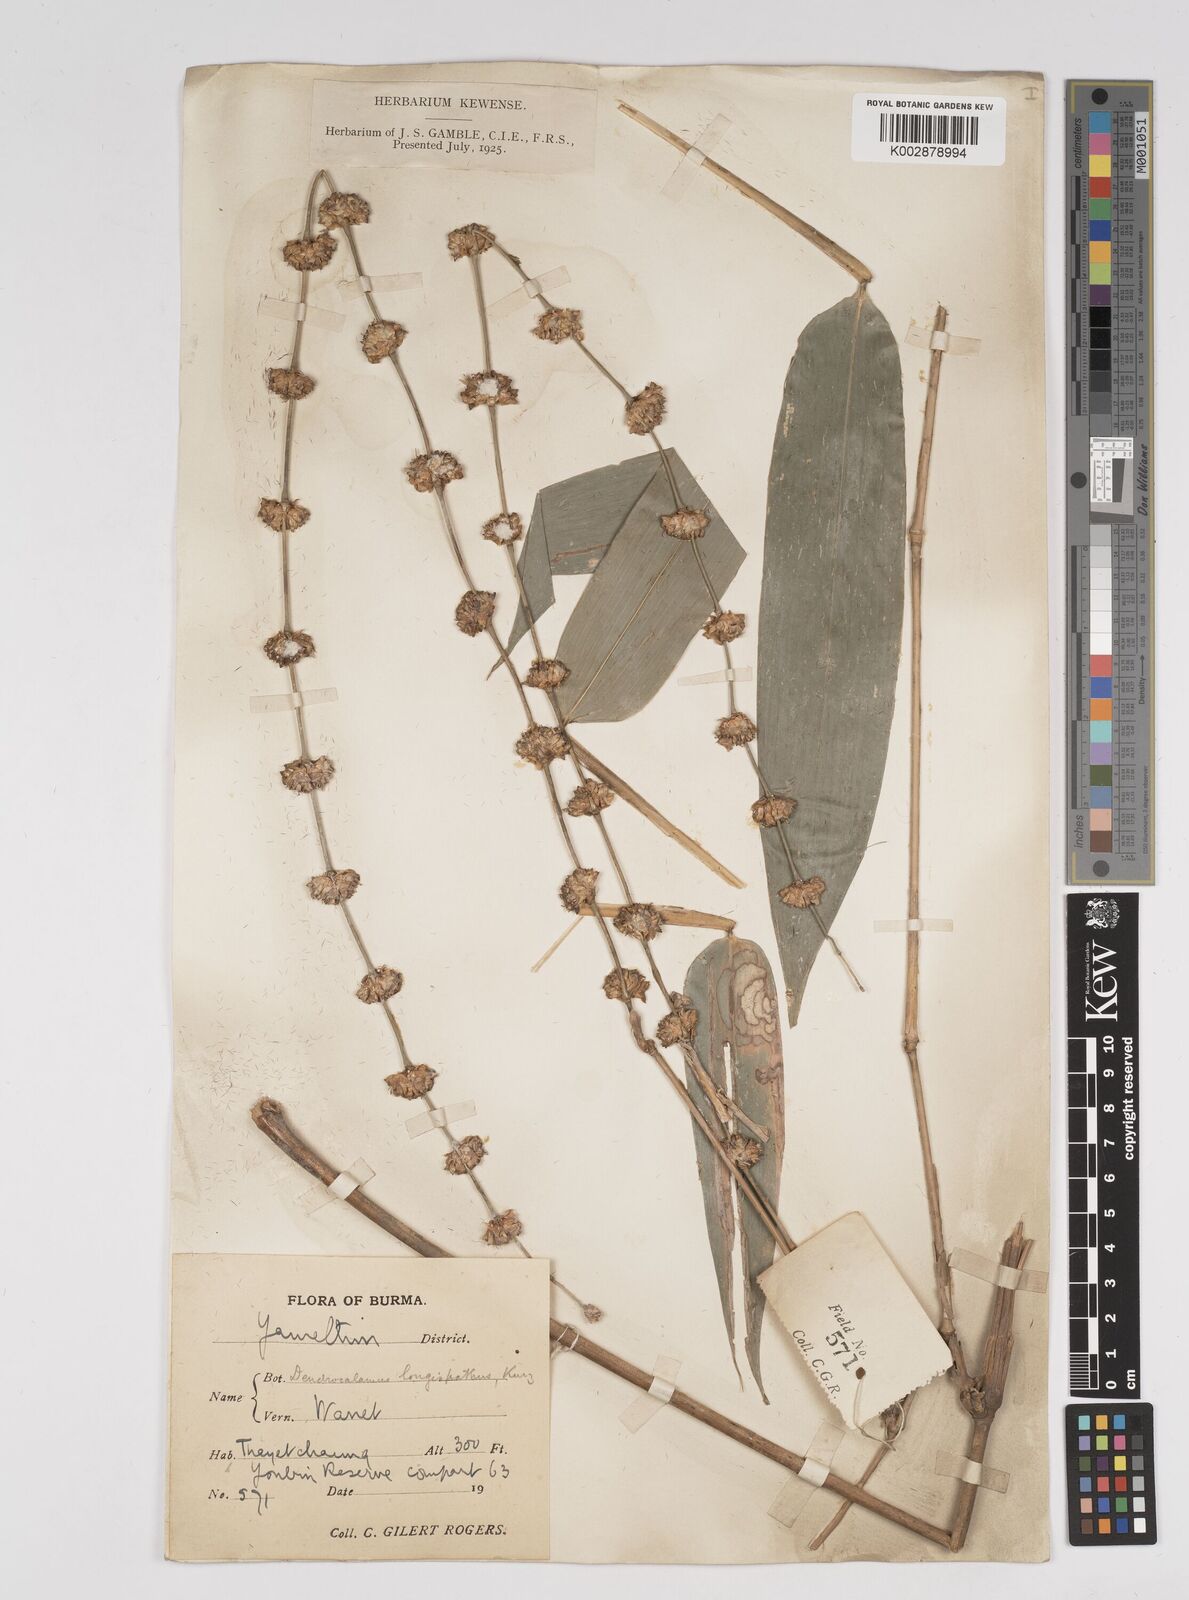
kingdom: Plantae
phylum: Tracheophyta
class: Liliopsida
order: Poales
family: Poaceae
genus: Dendrocalamus
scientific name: Dendrocalamus longispathus
